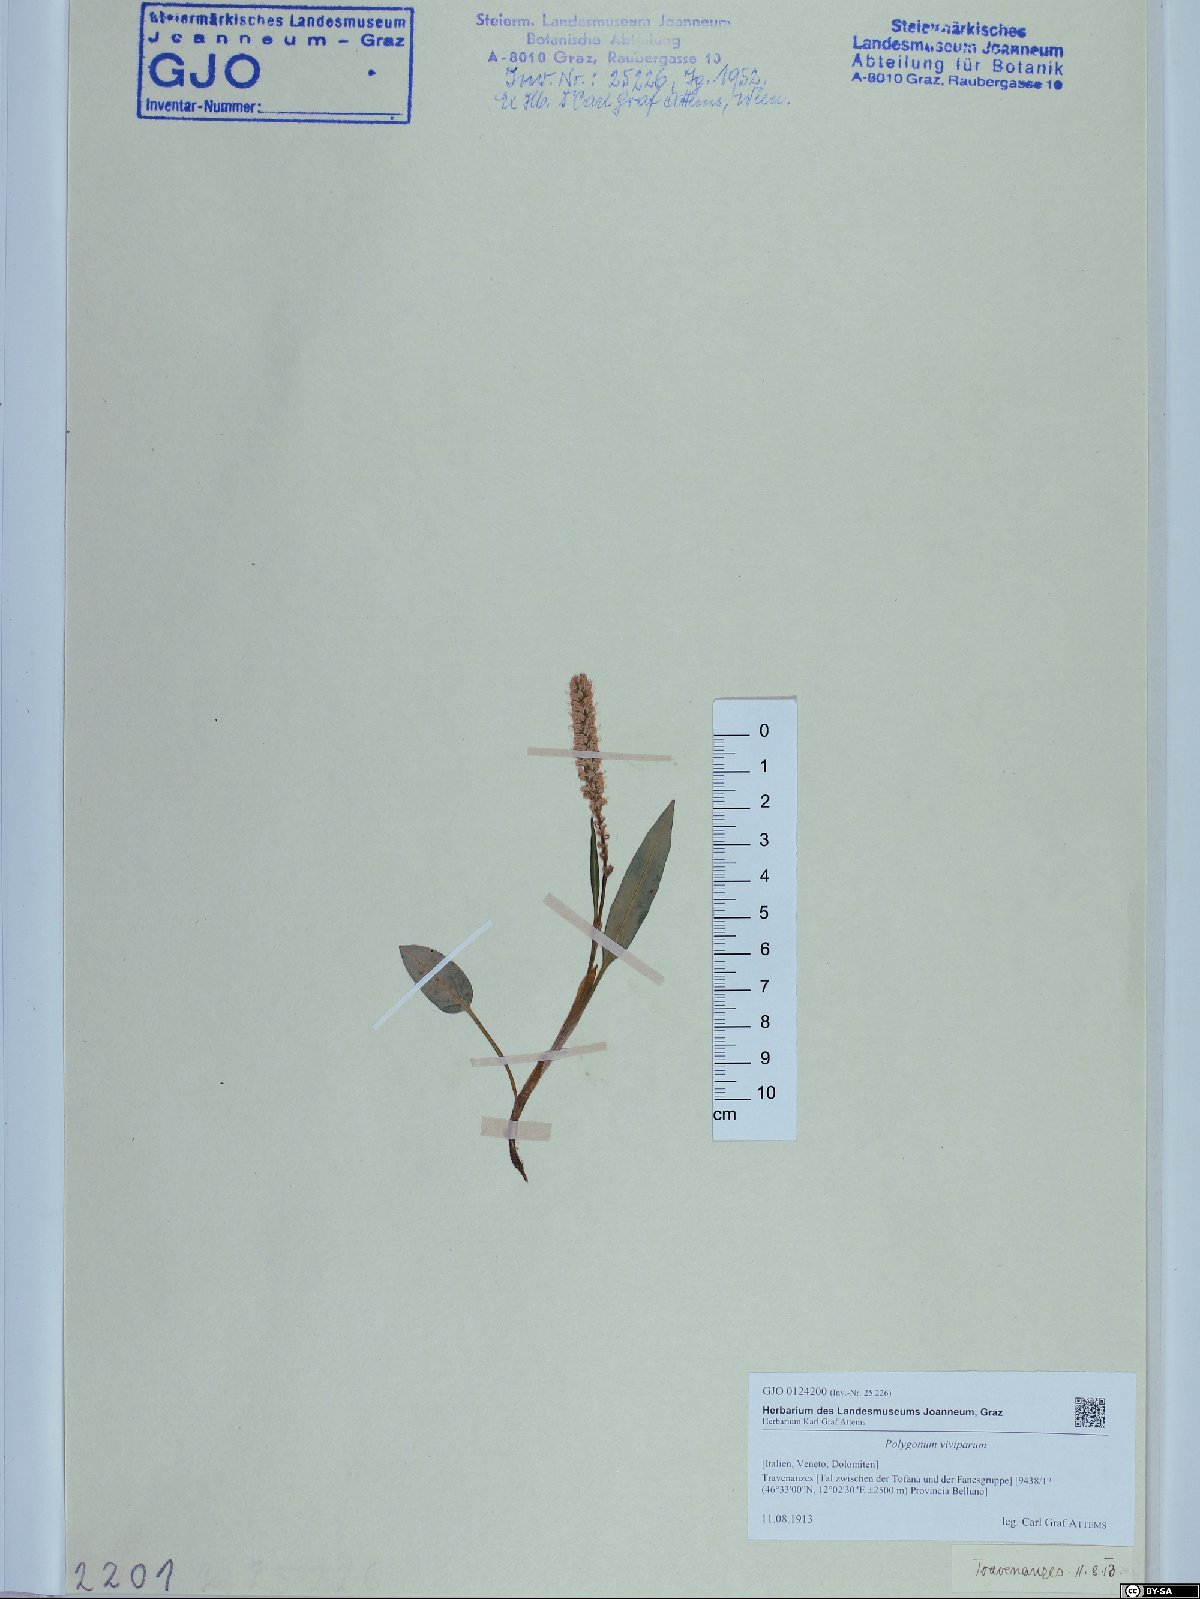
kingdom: Plantae
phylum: Tracheophyta
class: Magnoliopsida
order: Caryophyllales
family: Polygonaceae
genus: Bistorta
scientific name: Bistorta vivipara
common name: Alpine bistort
